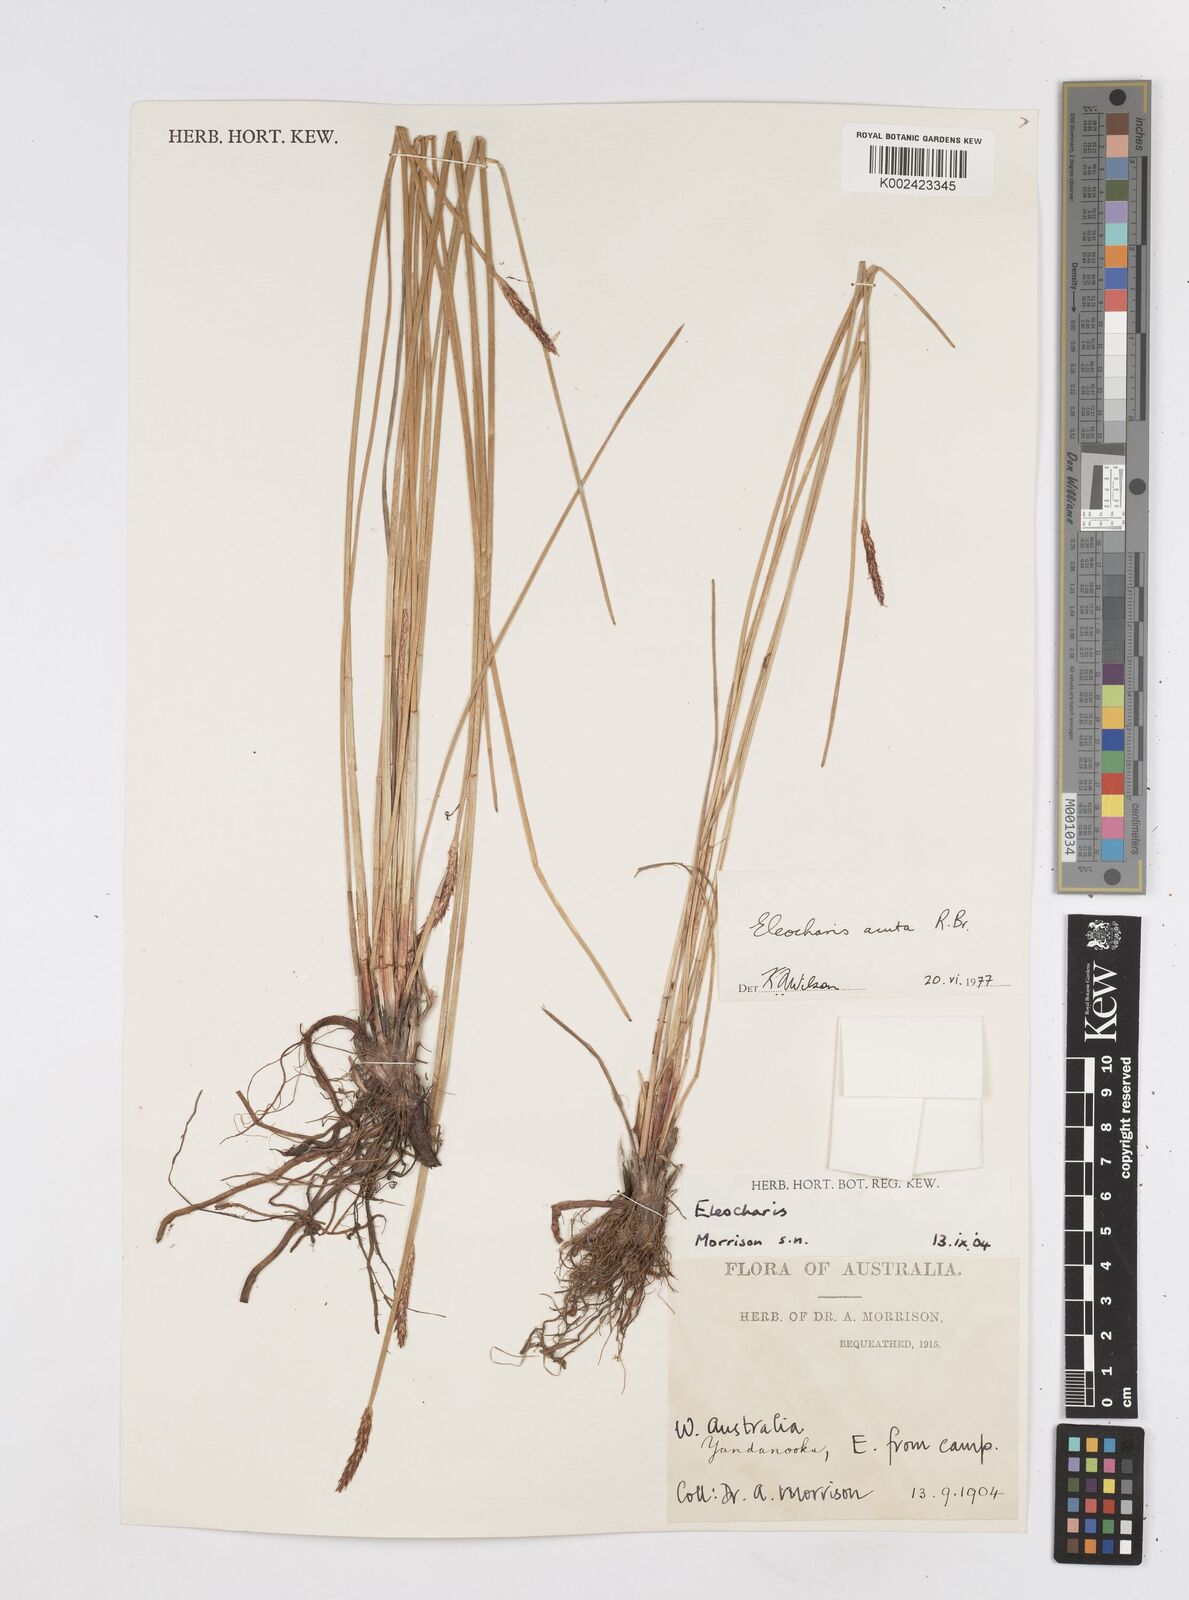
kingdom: Plantae
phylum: Tracheophyta
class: Liliopsida
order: Poales
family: Cyperaceae
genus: Eleocharis
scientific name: Eleocharis acuta
